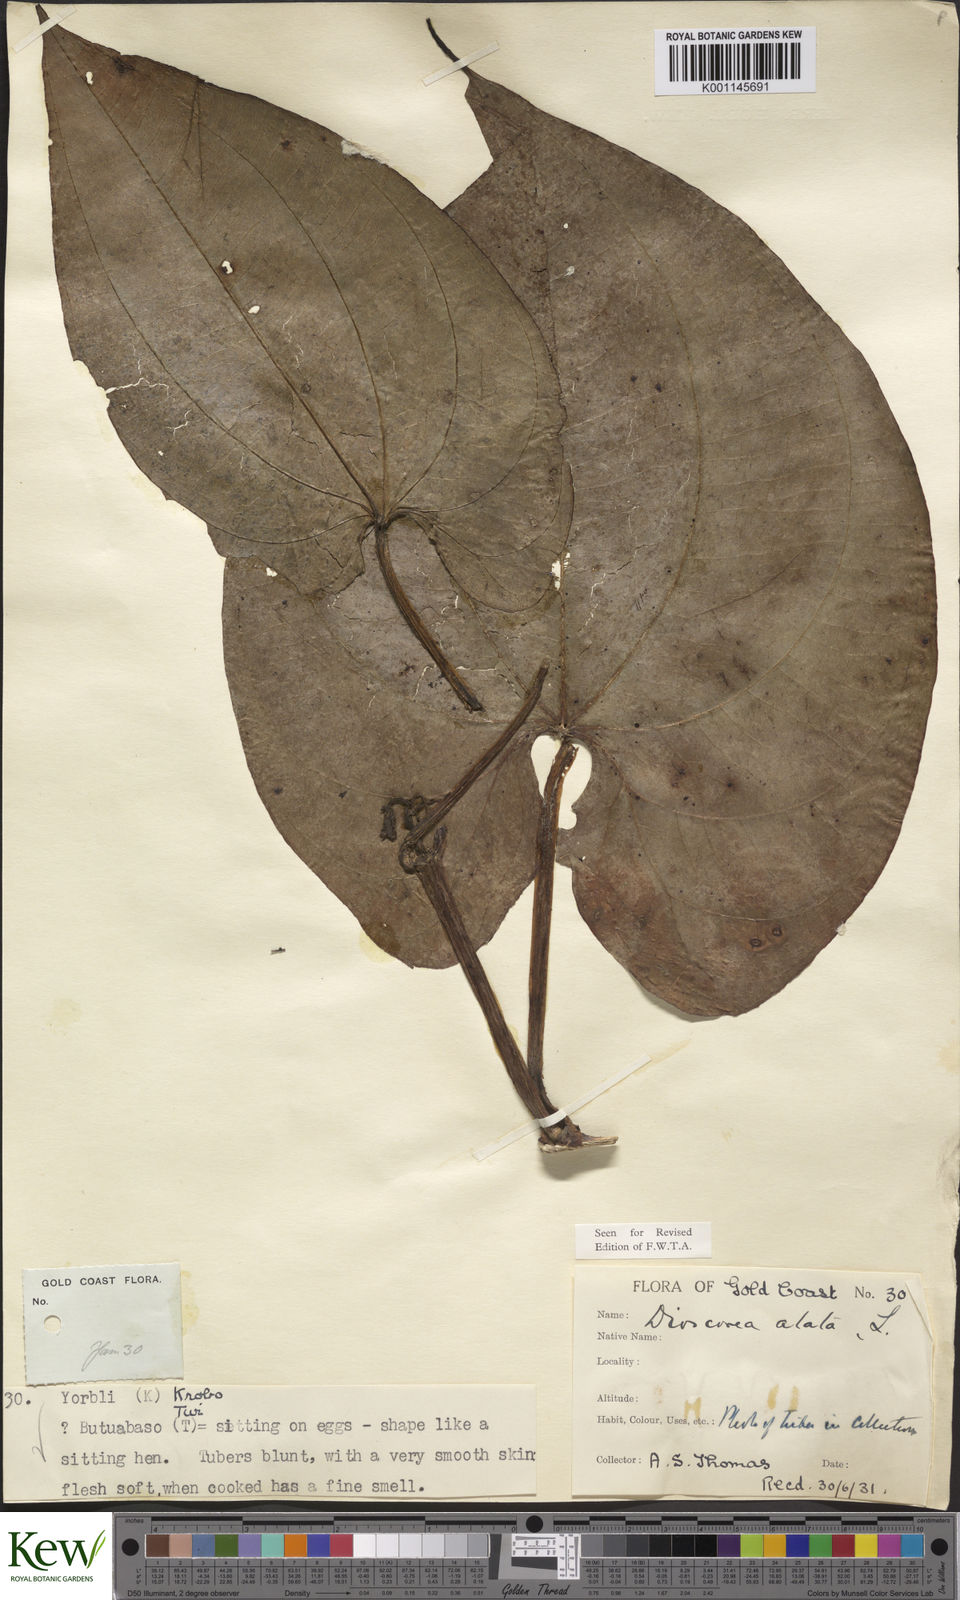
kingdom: Plantae
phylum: Tracheophyta
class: Liliopsida
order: Dioscoreales
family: Dioscoreaceae
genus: Dioscorea
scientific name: Dioscorea alata
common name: Water yam
